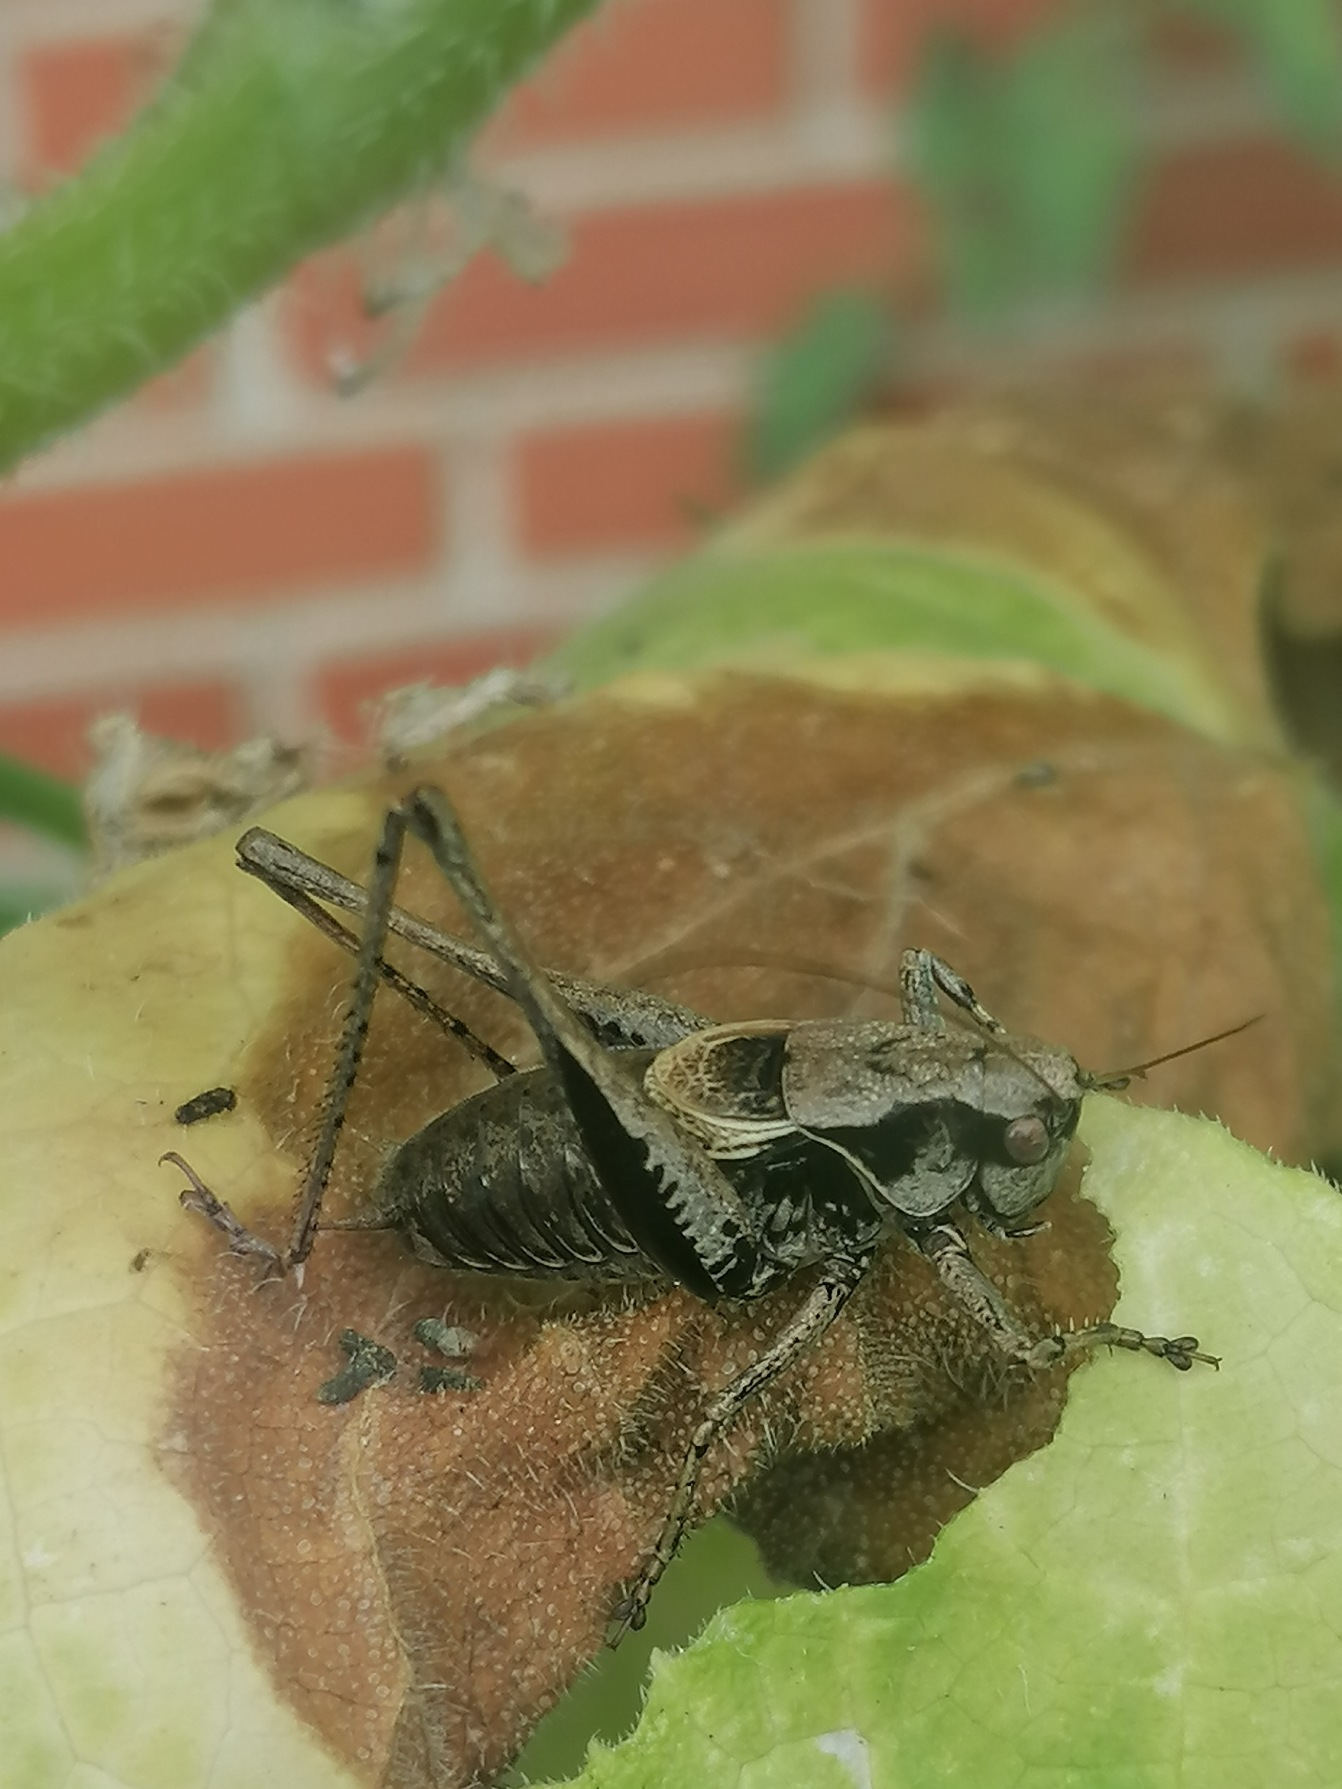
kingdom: Animalia
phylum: Arthropoda
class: Insecta
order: Orthoptera
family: Tettigoniidae
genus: Pholidoptera
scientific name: Pholidoptera griseoaptera
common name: Buskgræshoppe
